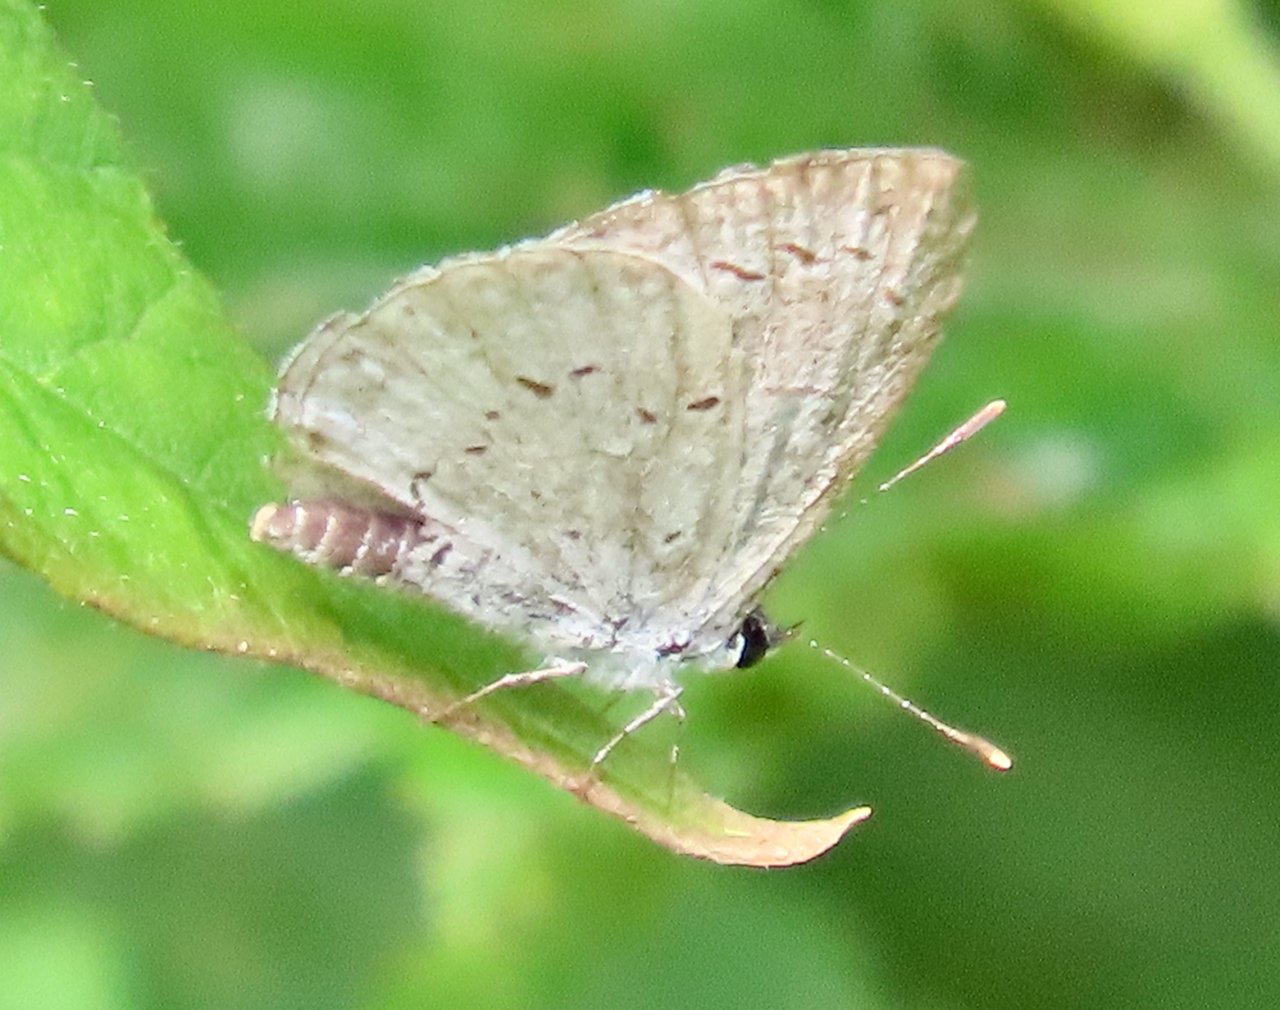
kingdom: Animalia
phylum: Arthropoda
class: Insecta
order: Lepidoptera
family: Lycaenidae
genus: Cyaniris
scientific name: Cyaniris neglecta
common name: Summer Azure
